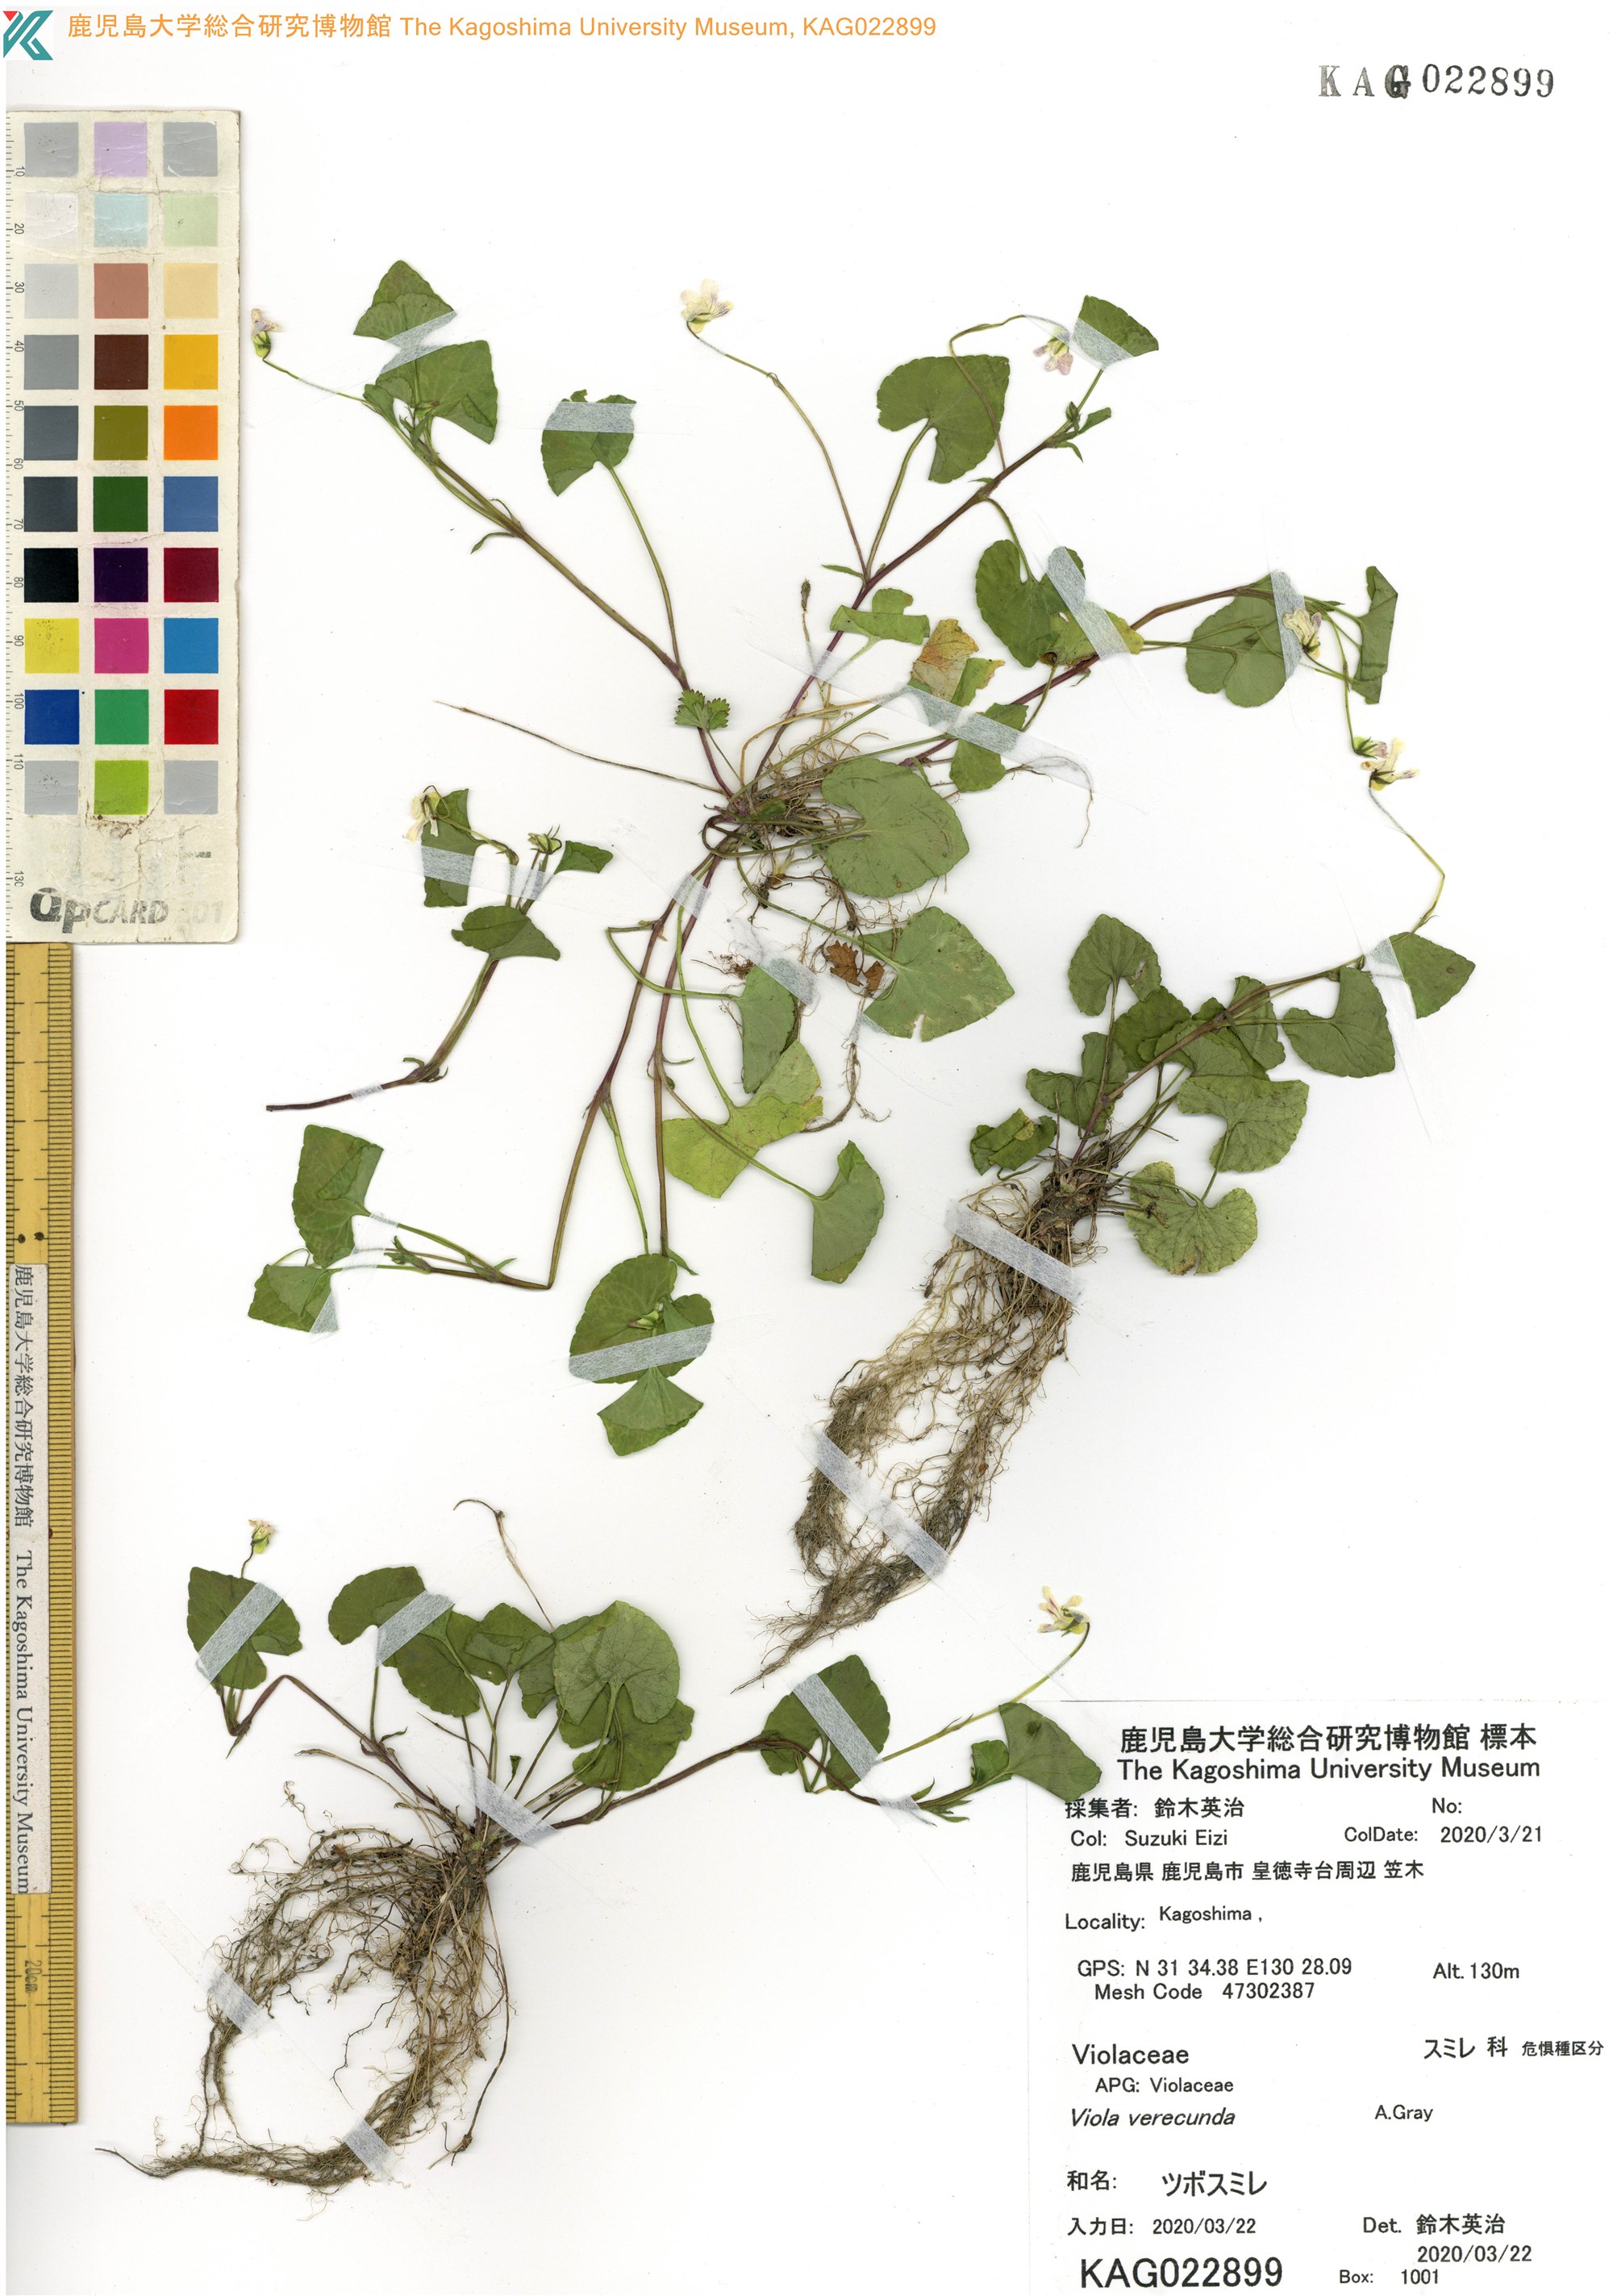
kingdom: Plantae
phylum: Tracheophyta
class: Magnoliopsida
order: Malpighiales
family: Violaceae
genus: Viola
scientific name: Viola hamiltoniana
